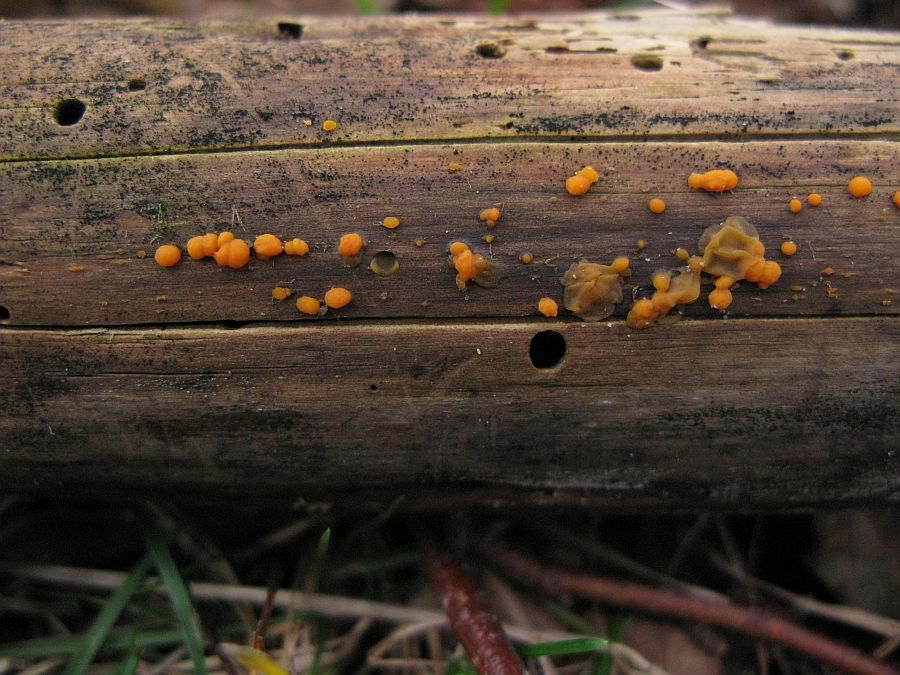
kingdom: Fungi
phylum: Basidiomycota
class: Dacrymycetes
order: Dacrymycetales
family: Dacrymycetaceae
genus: Dacrymyces
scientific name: Dacrymyces stillatus
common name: almindelig tåresvamp
